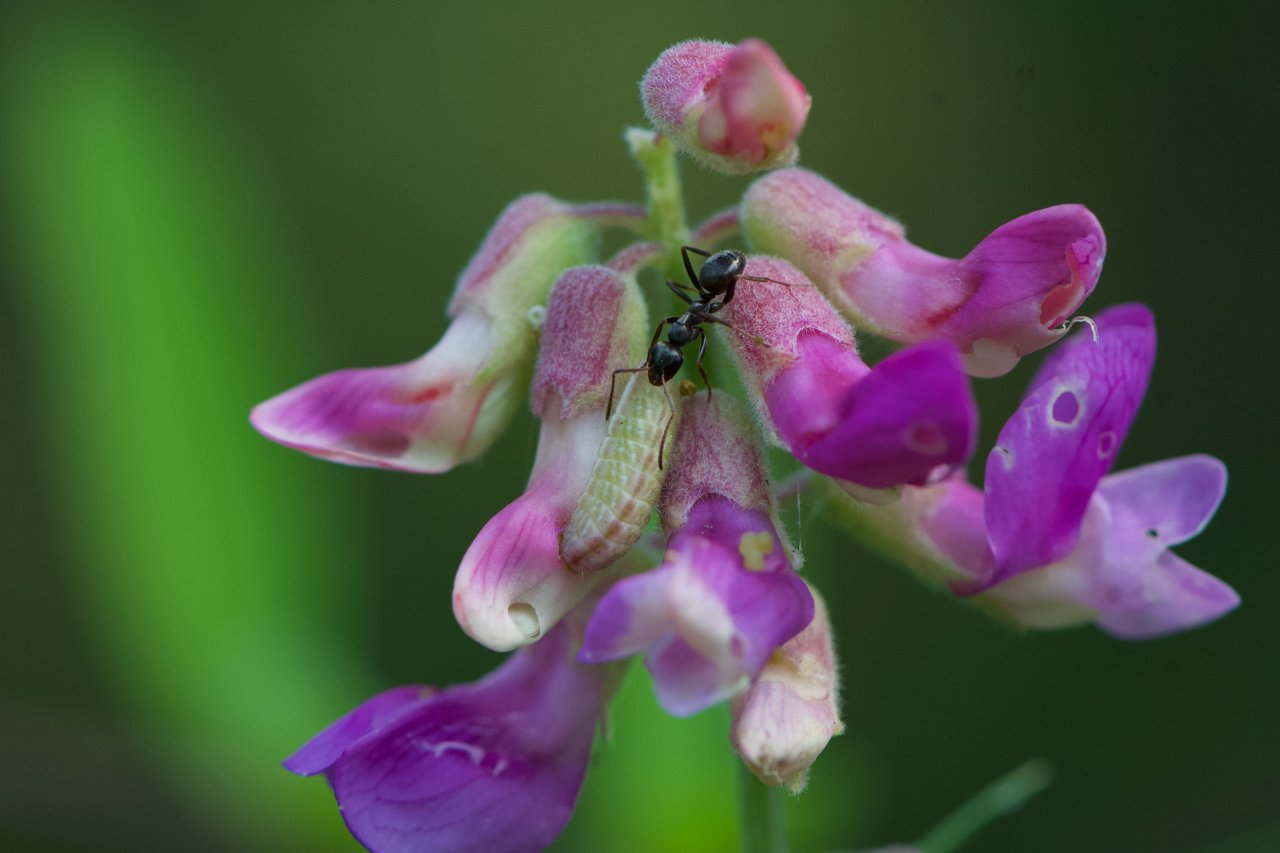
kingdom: Animalia
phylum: Arthropoda
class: Insecta
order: Lepidoptera
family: Lycaenidae
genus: Glaucopsyche
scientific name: Glaucopsyche lygdamus
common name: Silvery Blue
